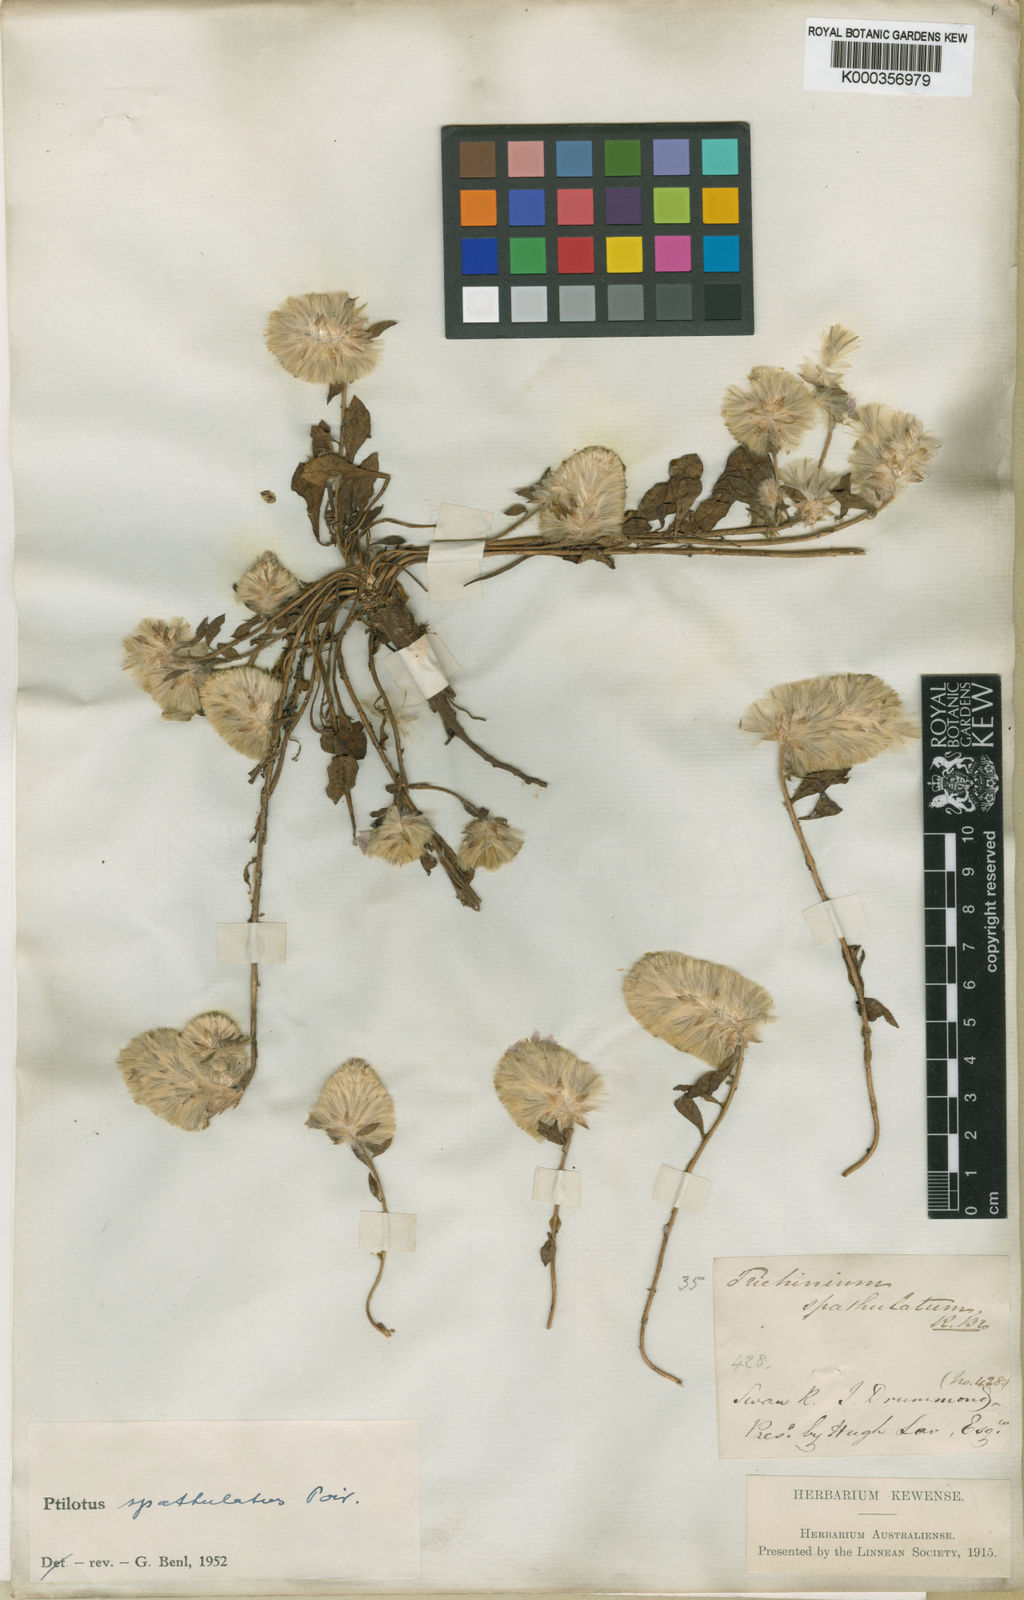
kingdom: Plantae
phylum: Tracheophyta
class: Magnoliopsida
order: Caryophyllales
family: Amaranthaceae
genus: Ptilotus
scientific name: Ptilotus spathulatus
